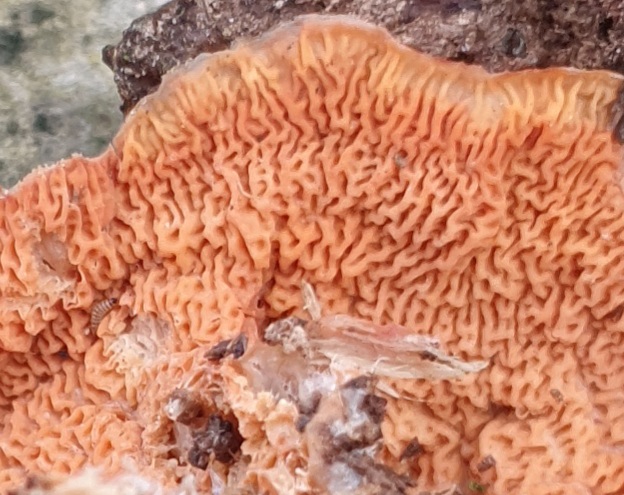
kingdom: Fungi
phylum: Basidiomycota
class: Agaricomycetes
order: Polyporales
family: Meruliaceae
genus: Phlebia
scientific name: Phlebia tremellosa
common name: bævrende åresvamp
